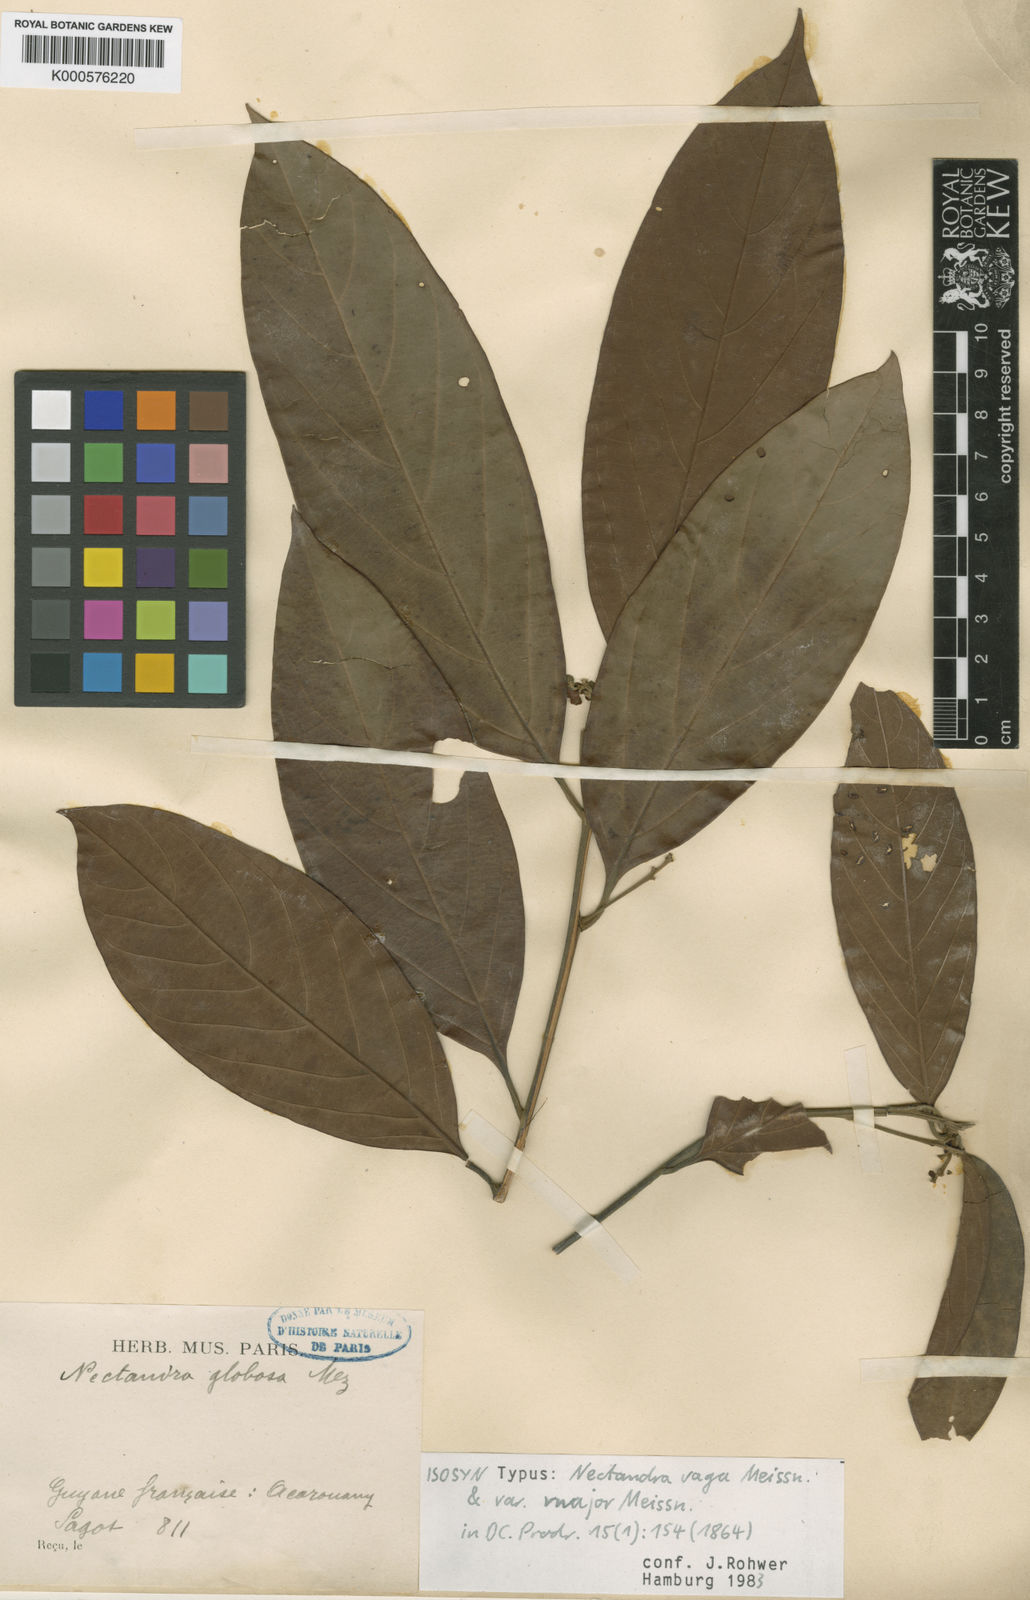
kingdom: Plantae
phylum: Tracheophyta
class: Magnoliopsida
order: Laurales
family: Lauraceae
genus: Nectandra
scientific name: Nectandra globosa
